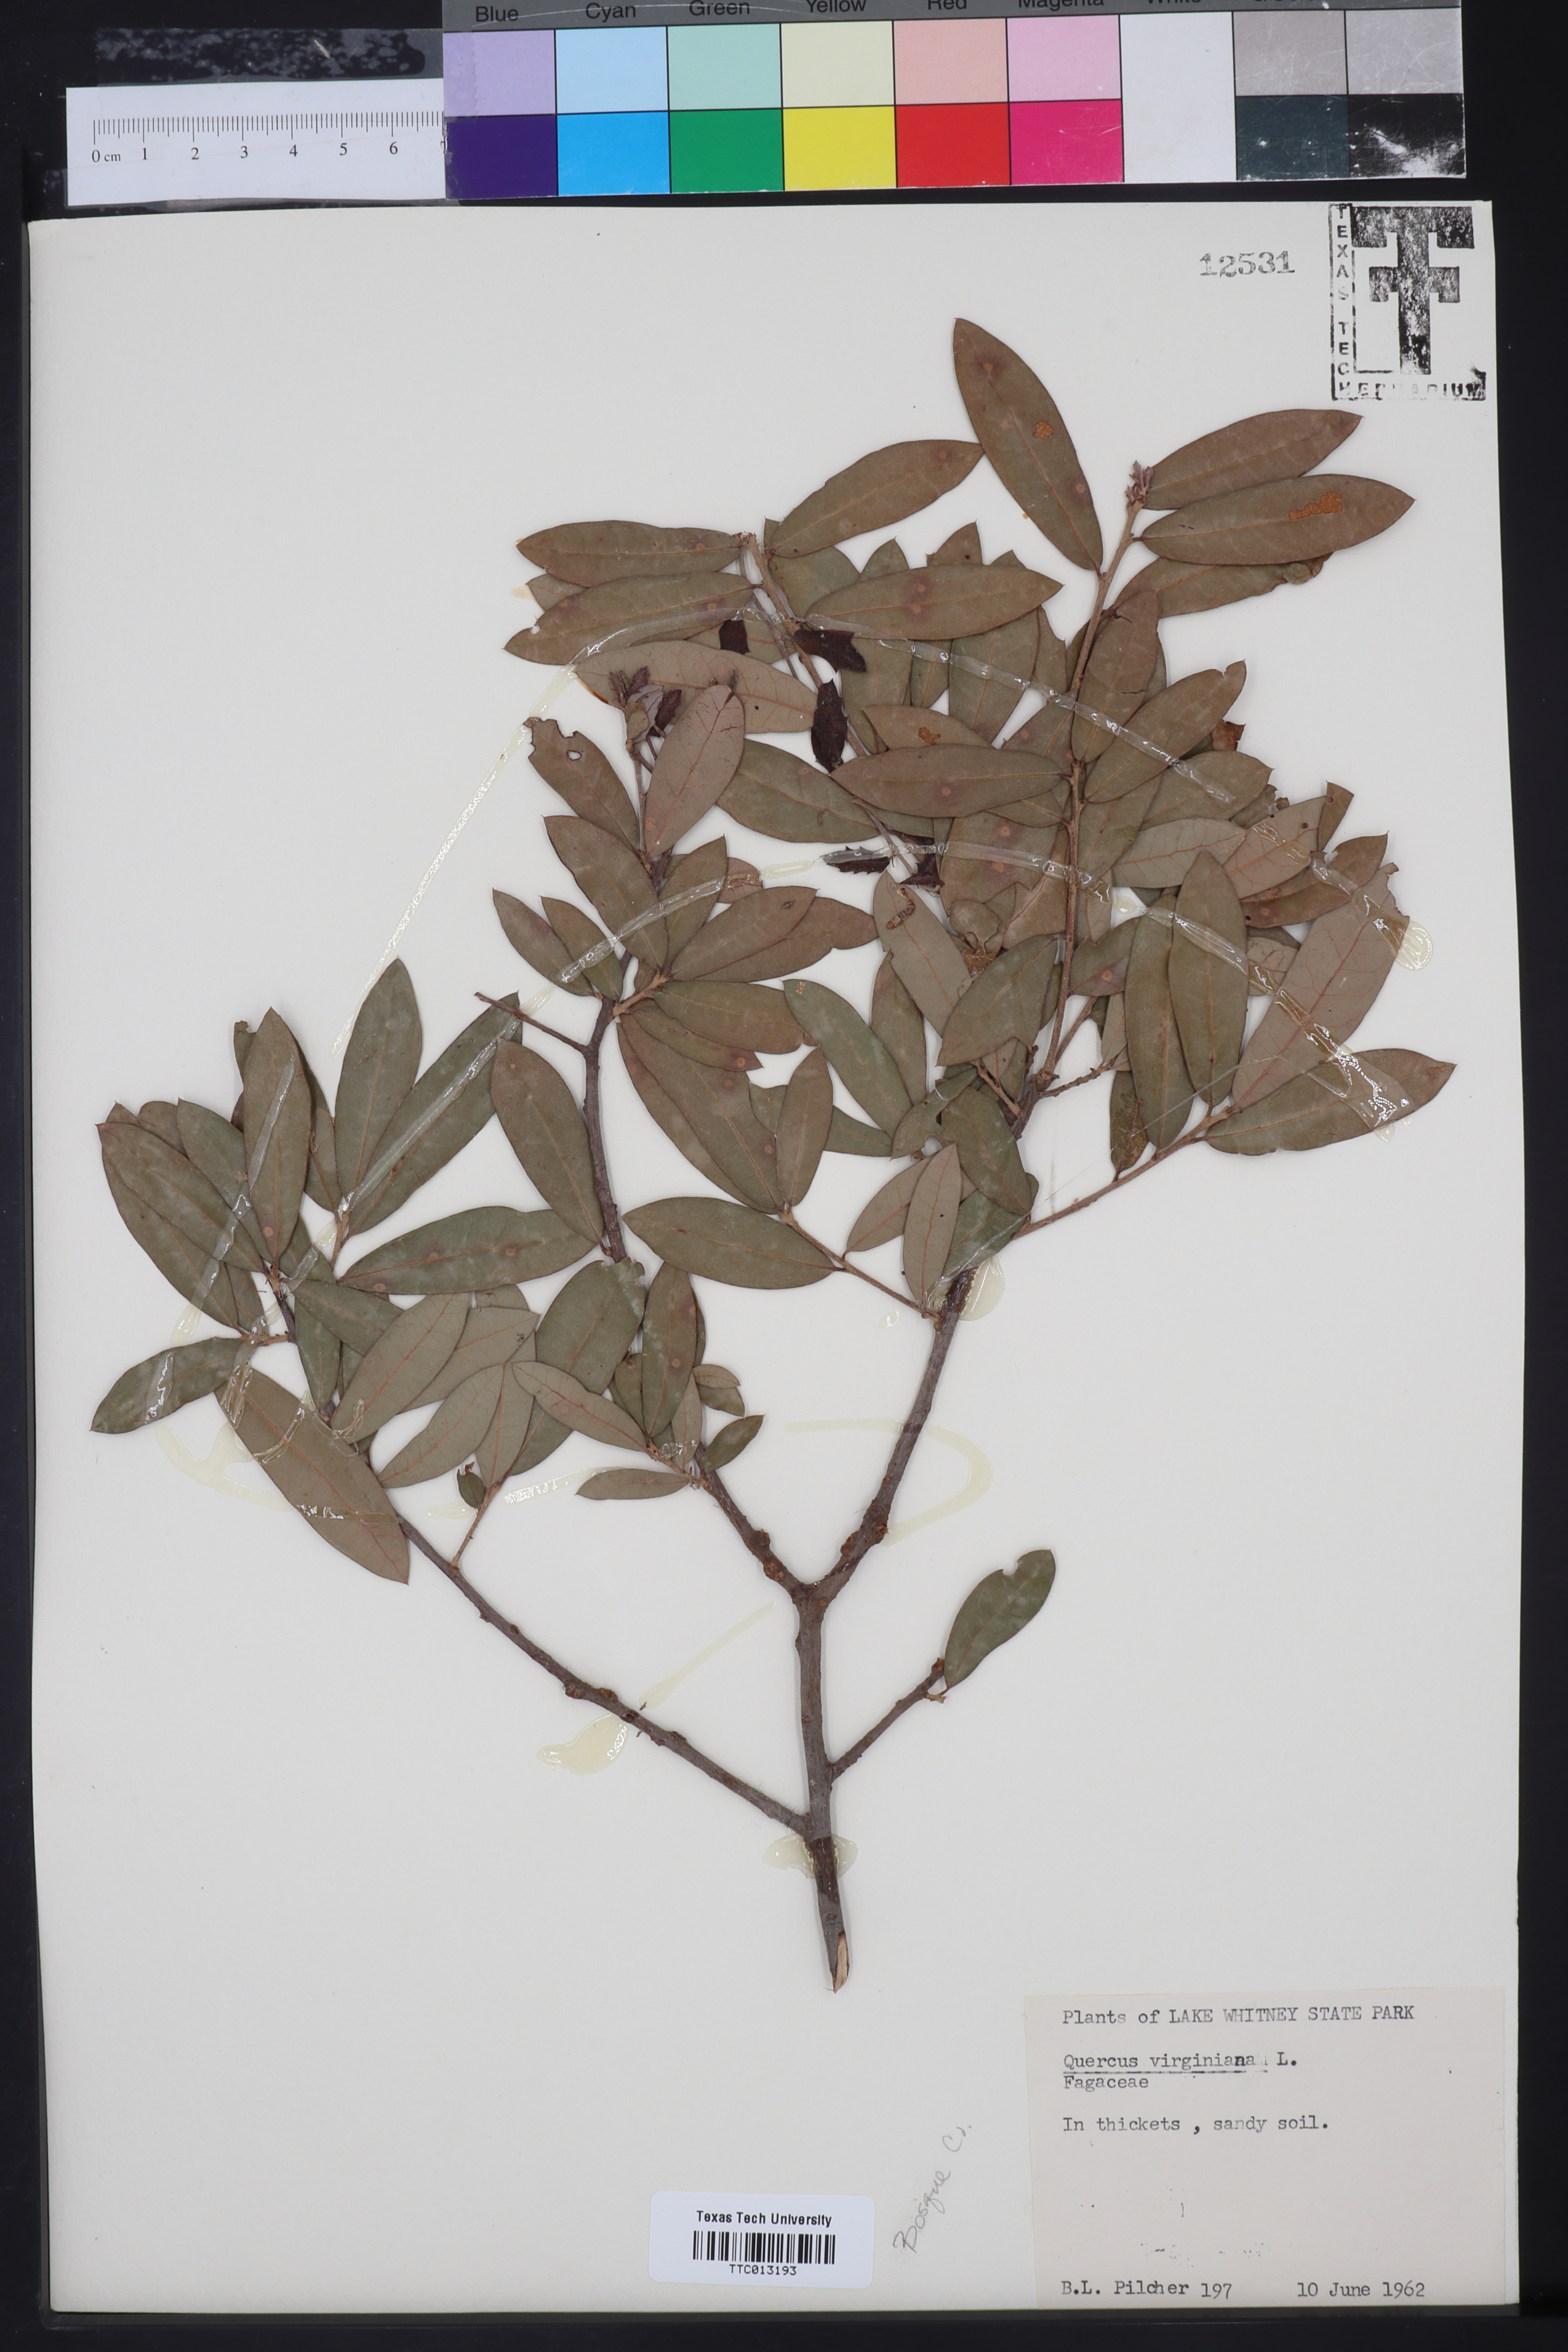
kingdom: Plantae
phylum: Tracheophyta
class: Magnoliopsida
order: Fagales
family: Fagaceae
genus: Quercus
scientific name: Quercus virginiana
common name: Southern live oak
